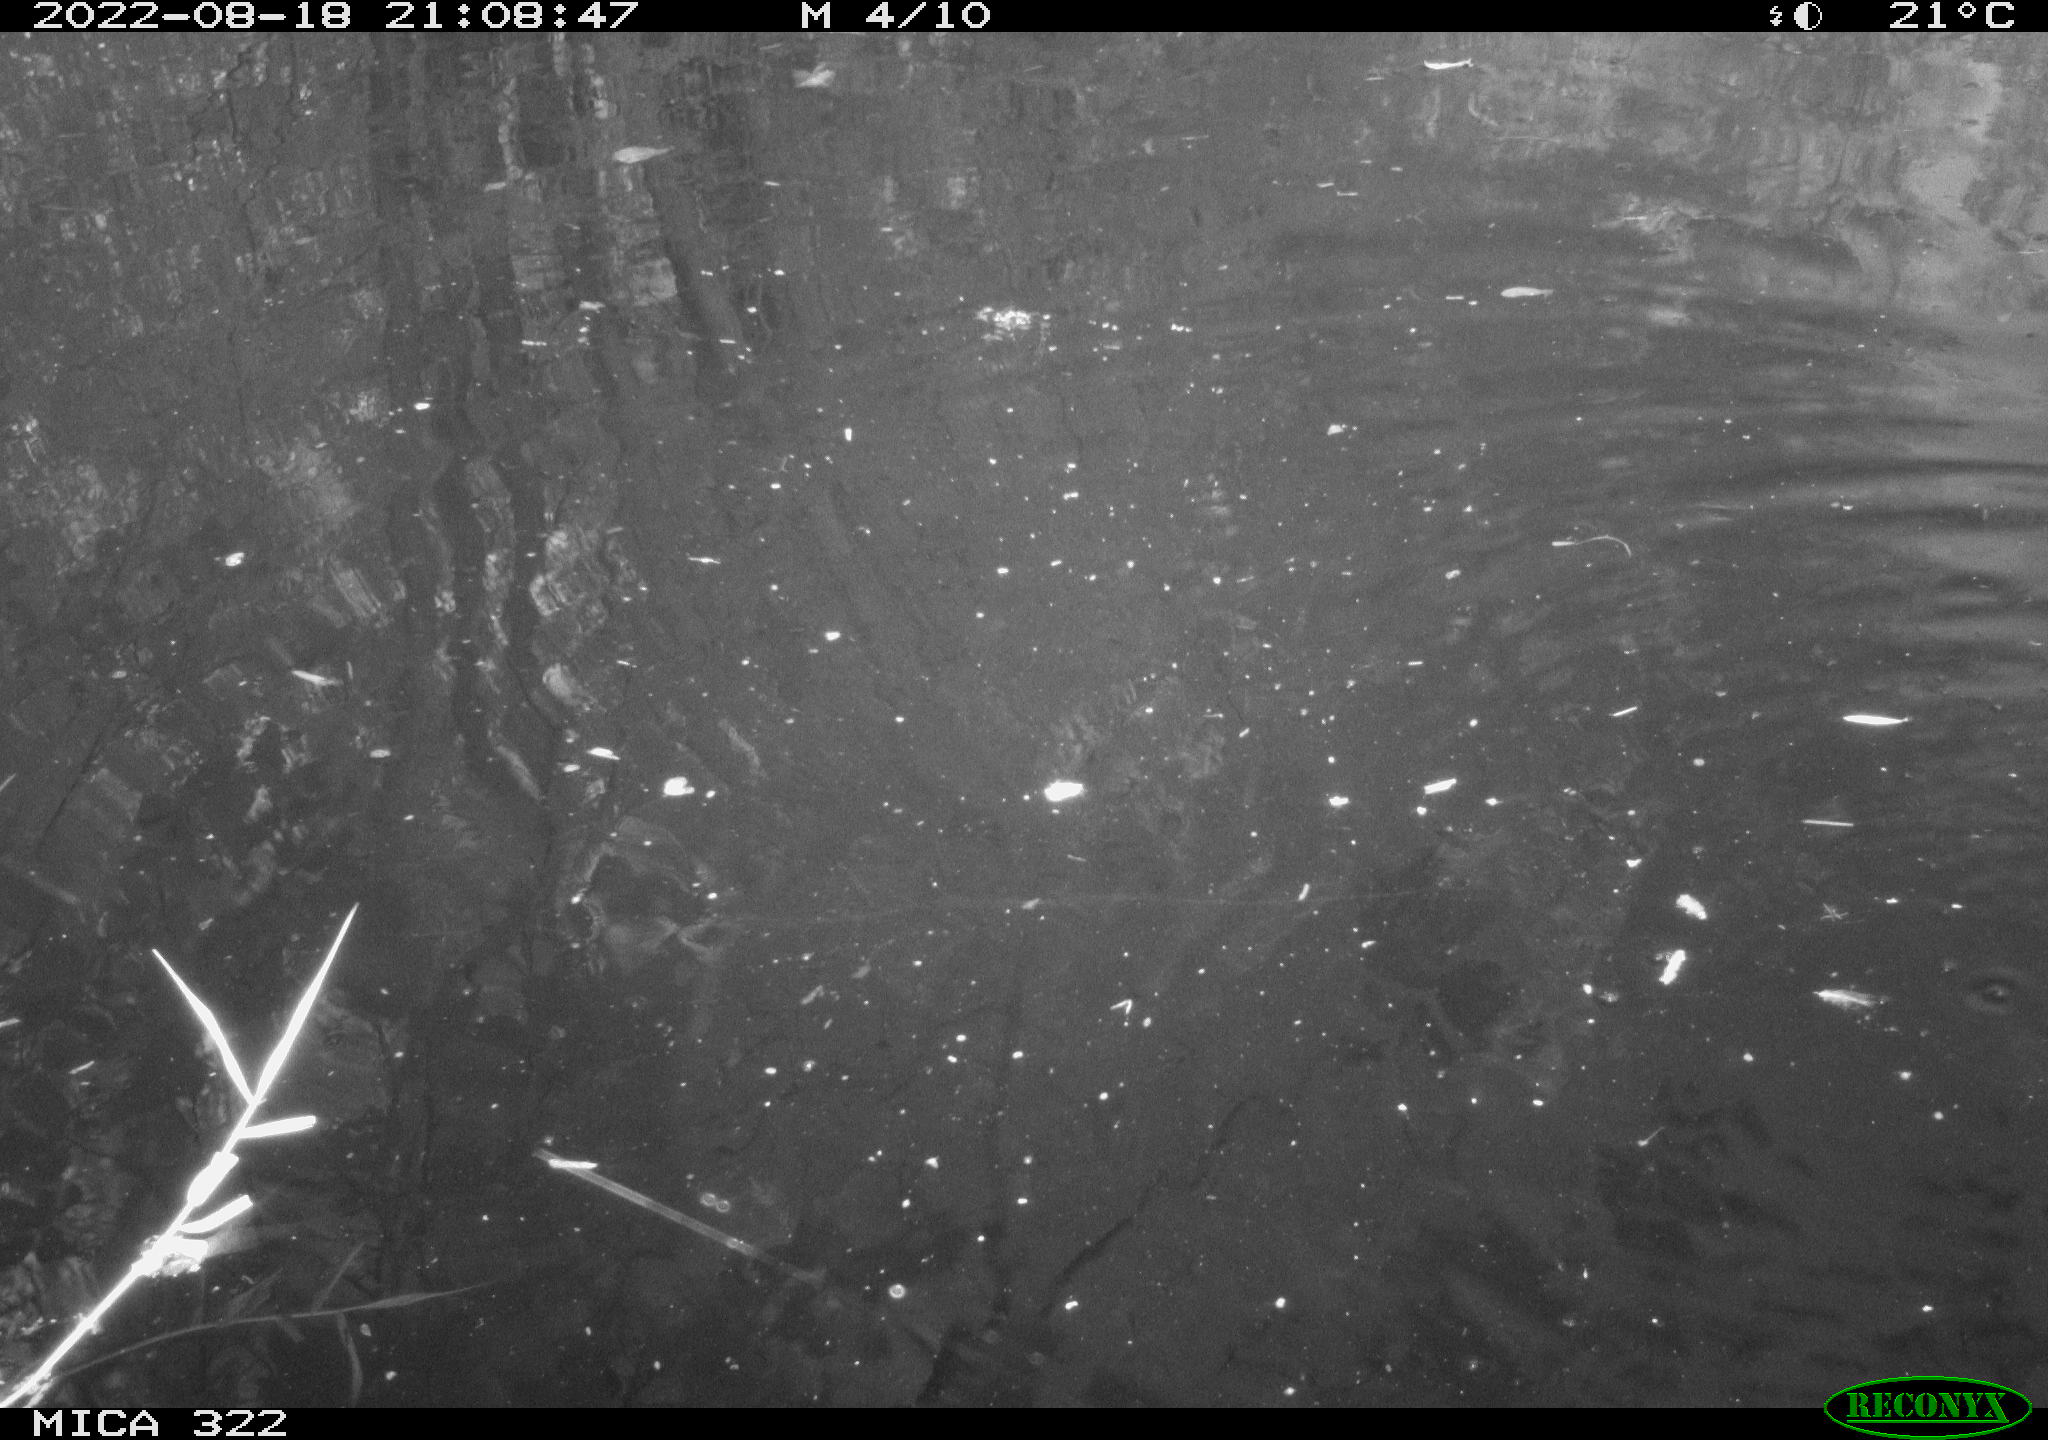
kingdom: Animalia
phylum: Chordata
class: Aves
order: Gruiformes
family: Rallidae
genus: Fulica
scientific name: Fulica atra
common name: Eurasian coot
